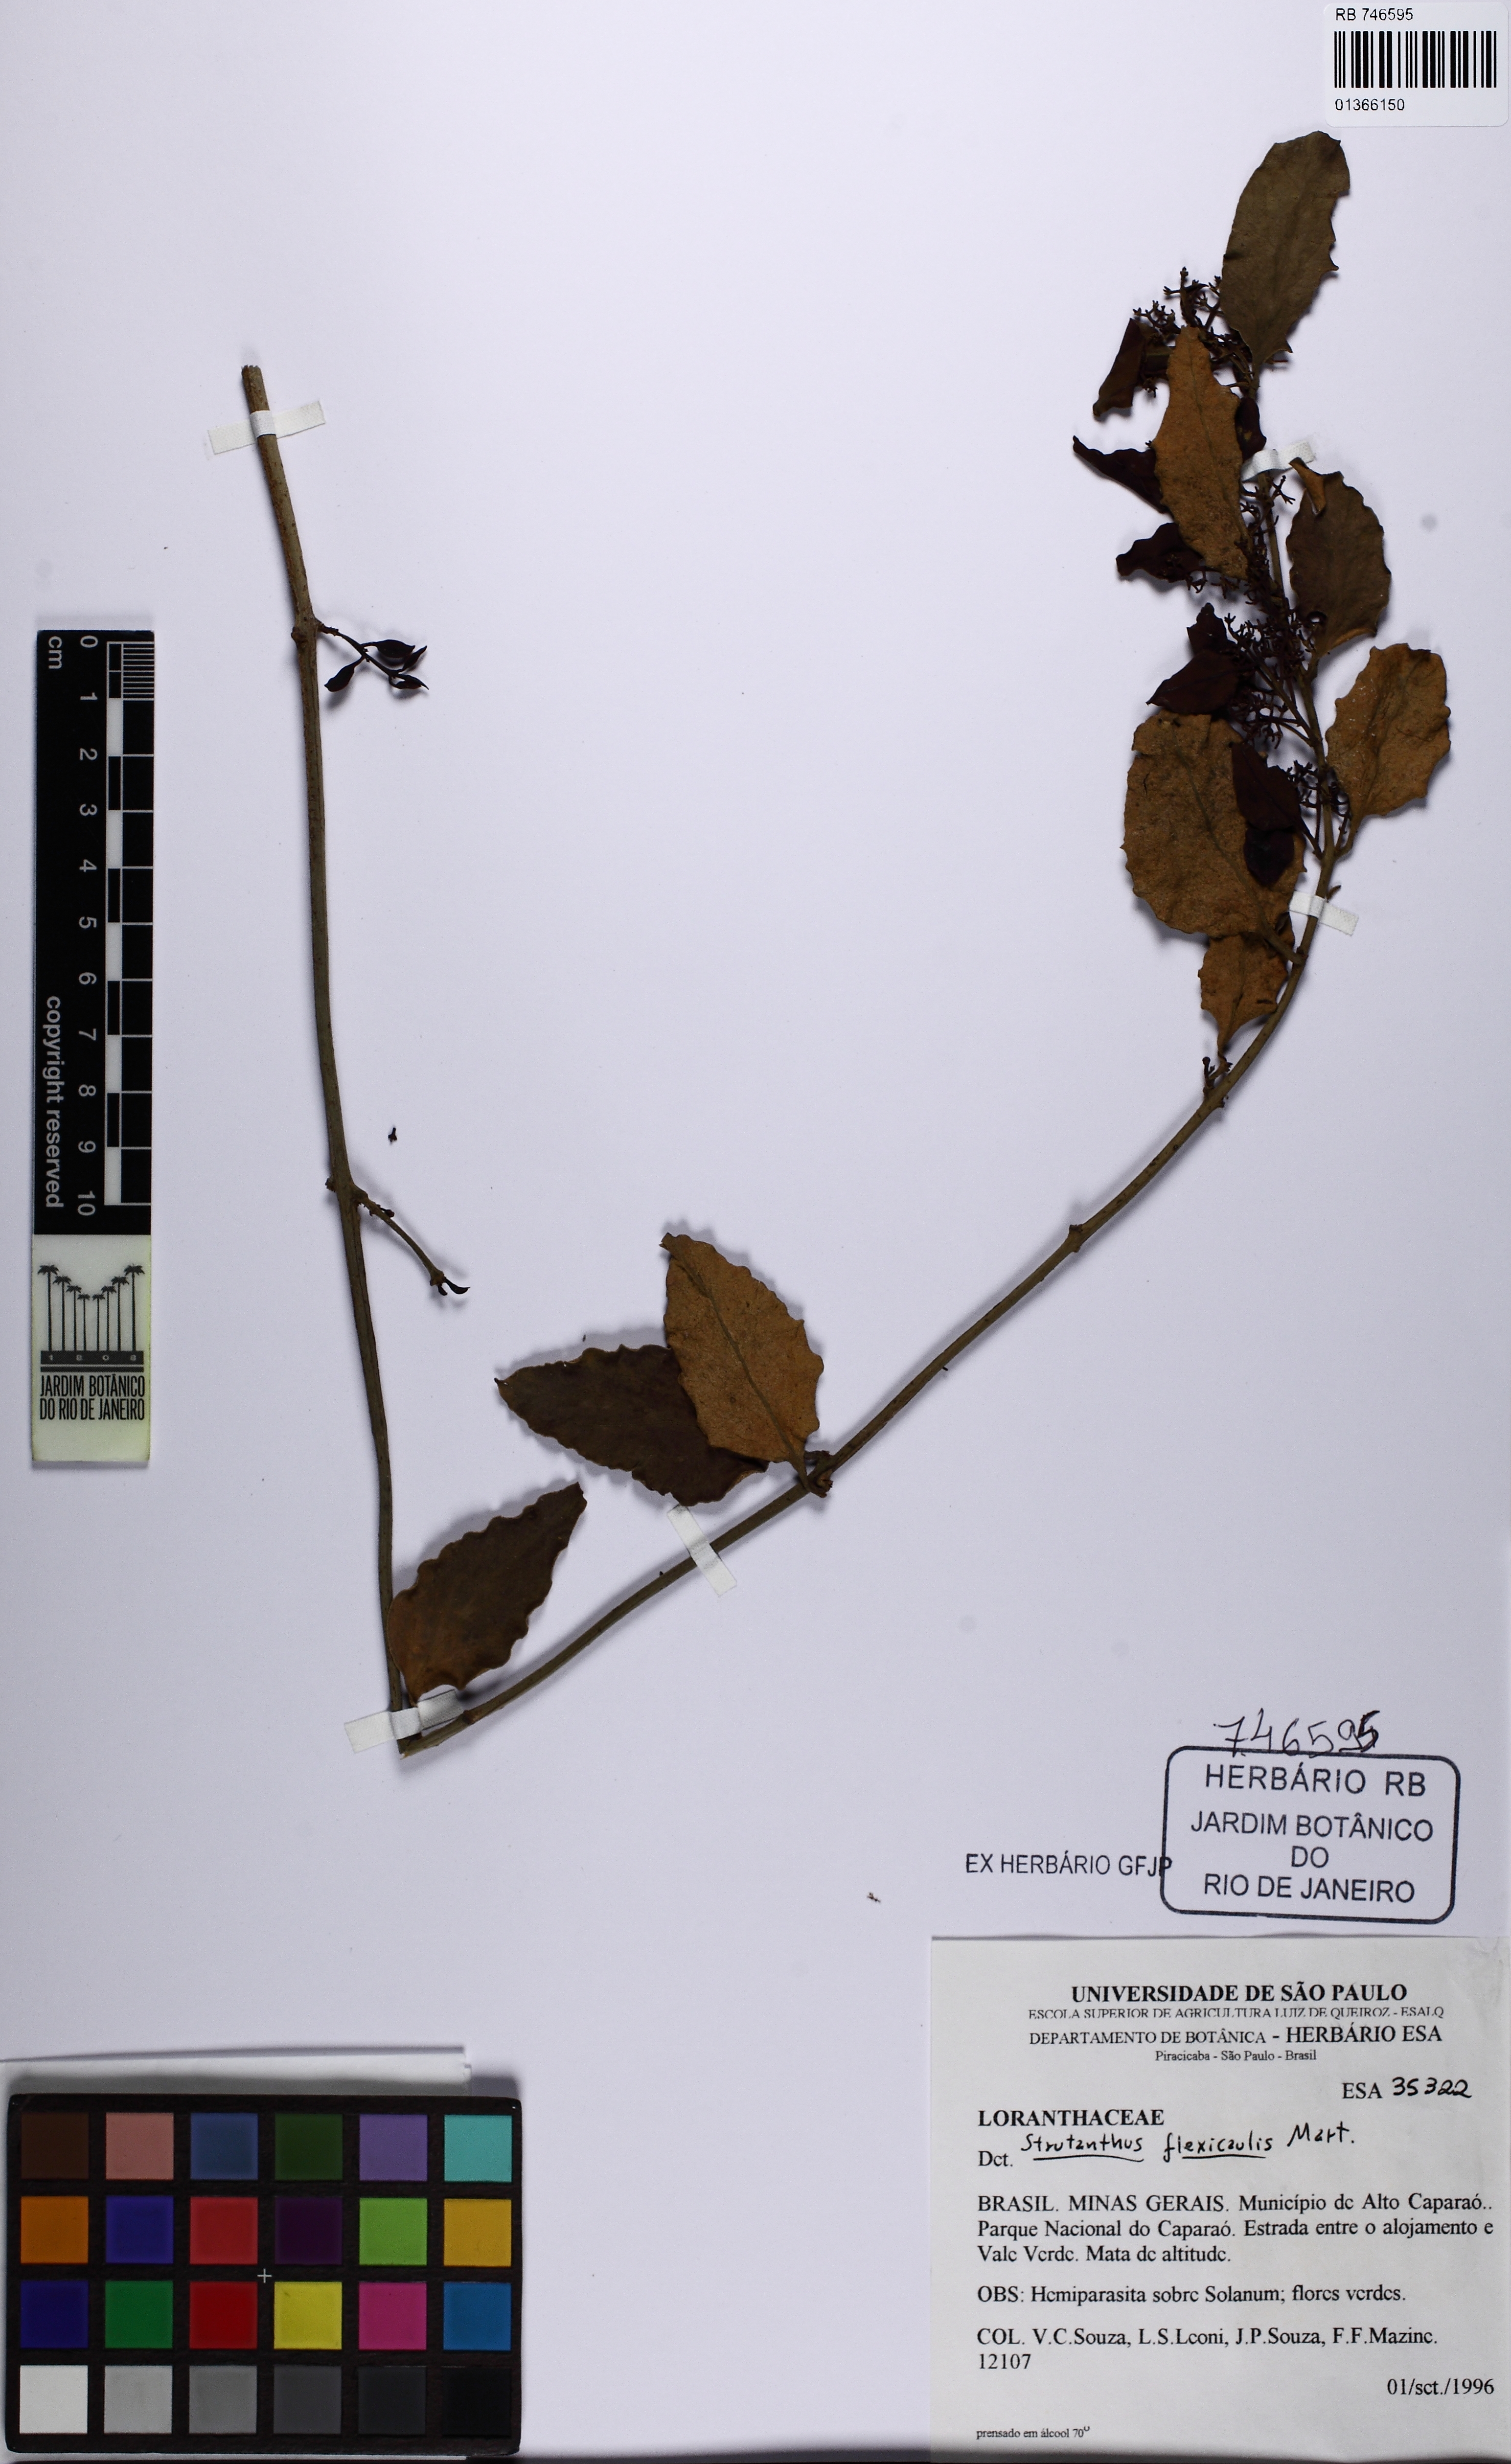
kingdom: Plantae
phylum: Tracheophyta
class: Magnoliopsida
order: Santalales
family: Loranthaceae
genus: Struthanthus
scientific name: Struthanthus flexicaulis
